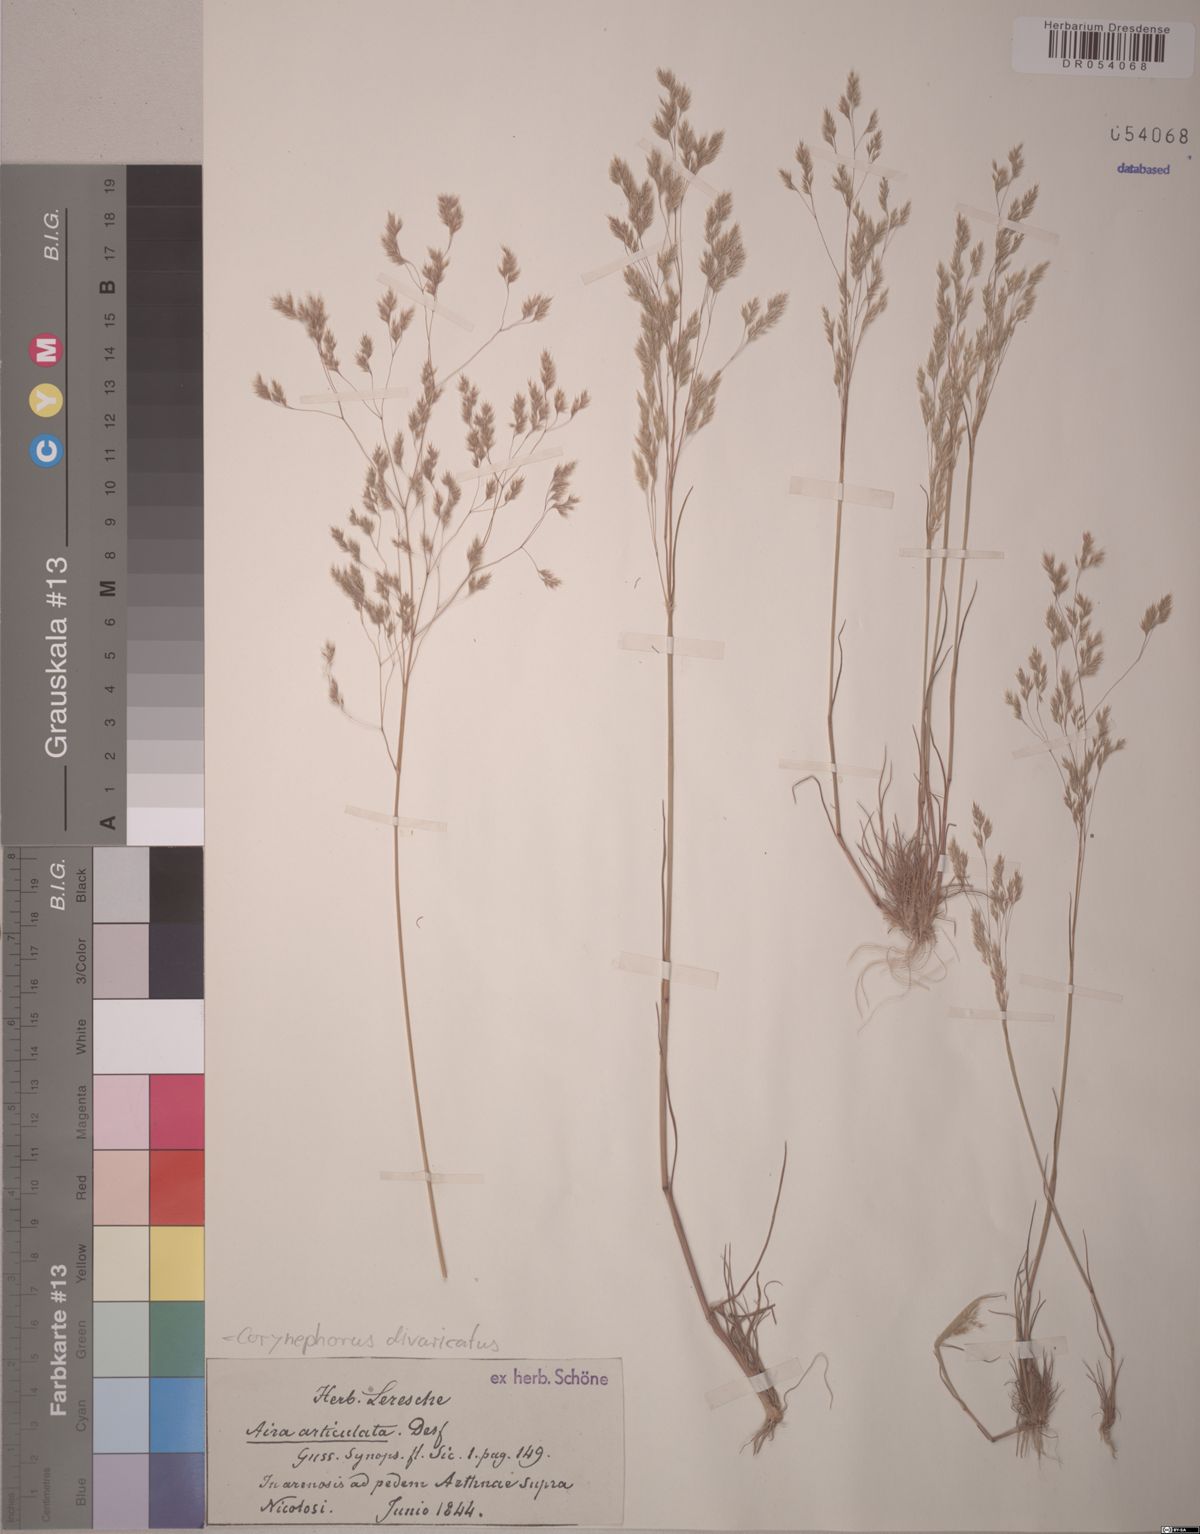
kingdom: Plantae
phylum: Tracheophyta
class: Liliopsida
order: Poales
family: Poaceae
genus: Corynephorus
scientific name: Corynephorus divaricatus
